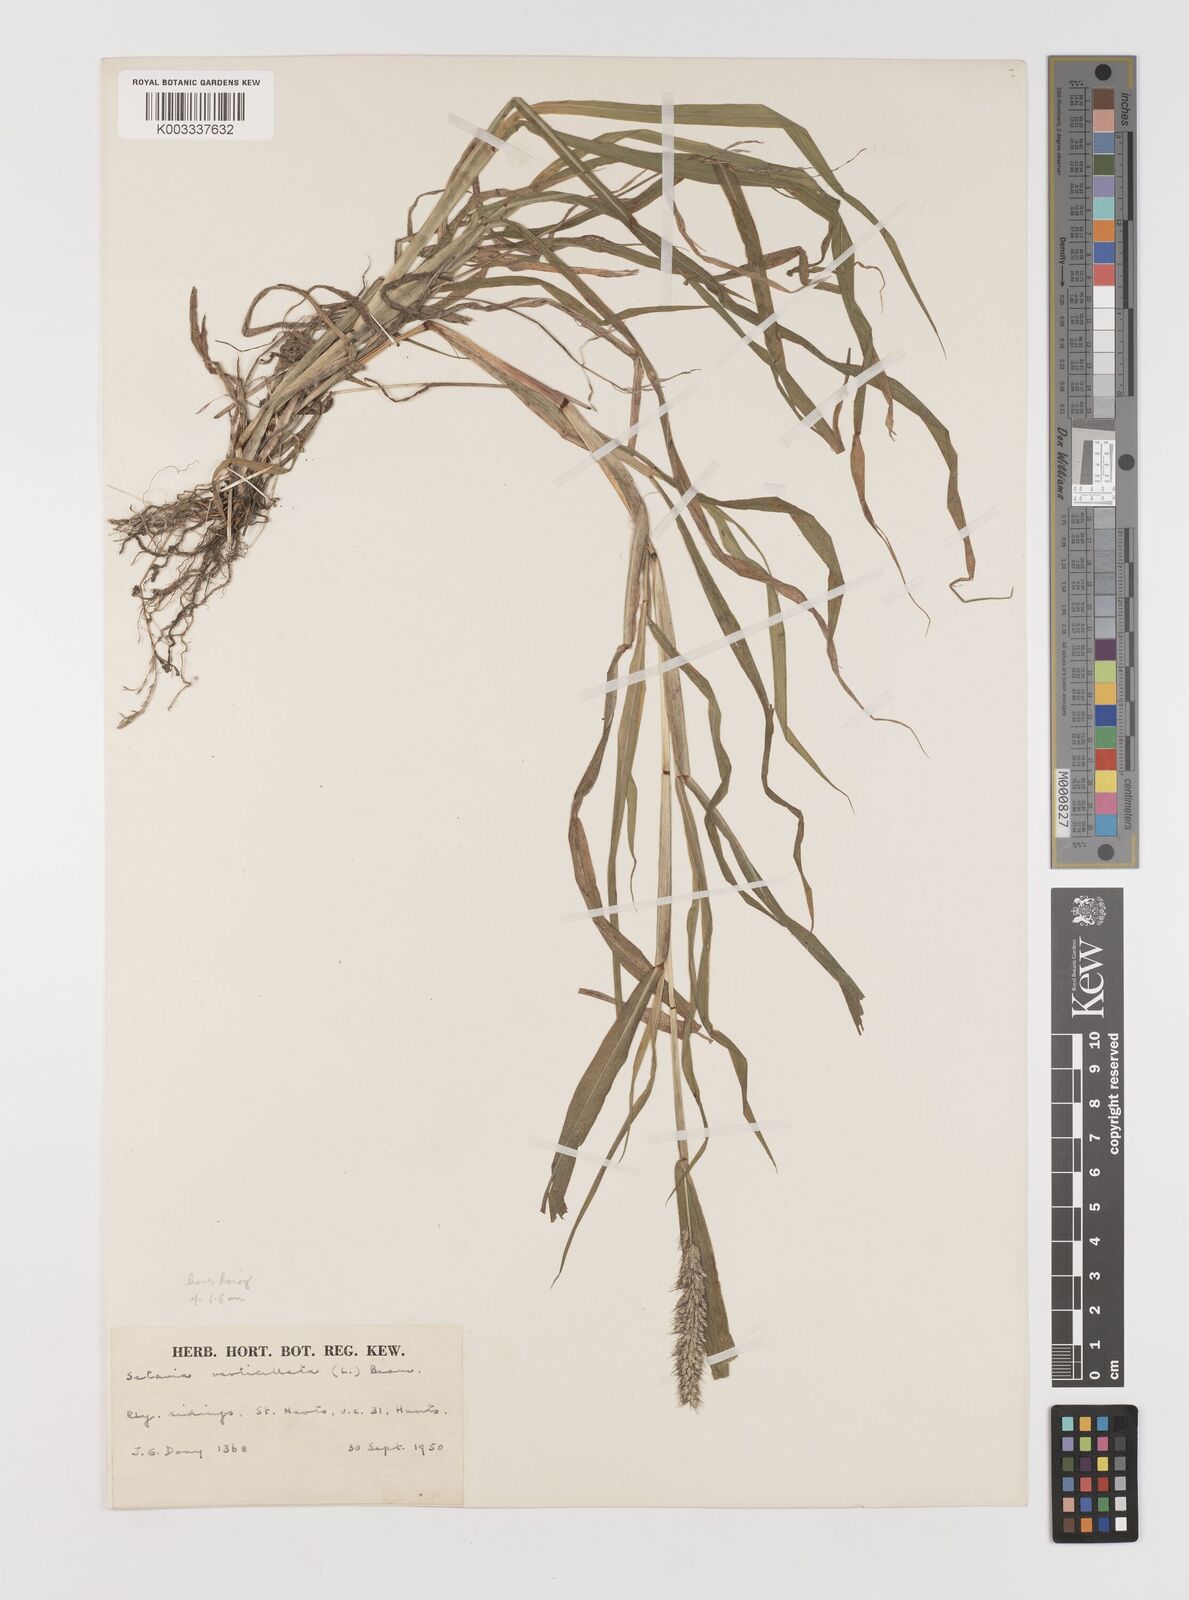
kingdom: Plantae
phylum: Tracheophyta
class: Liliopsida
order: Poales
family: Poaceae
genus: Setaria
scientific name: Setaria verticillata
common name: Hooked bristlegrass
